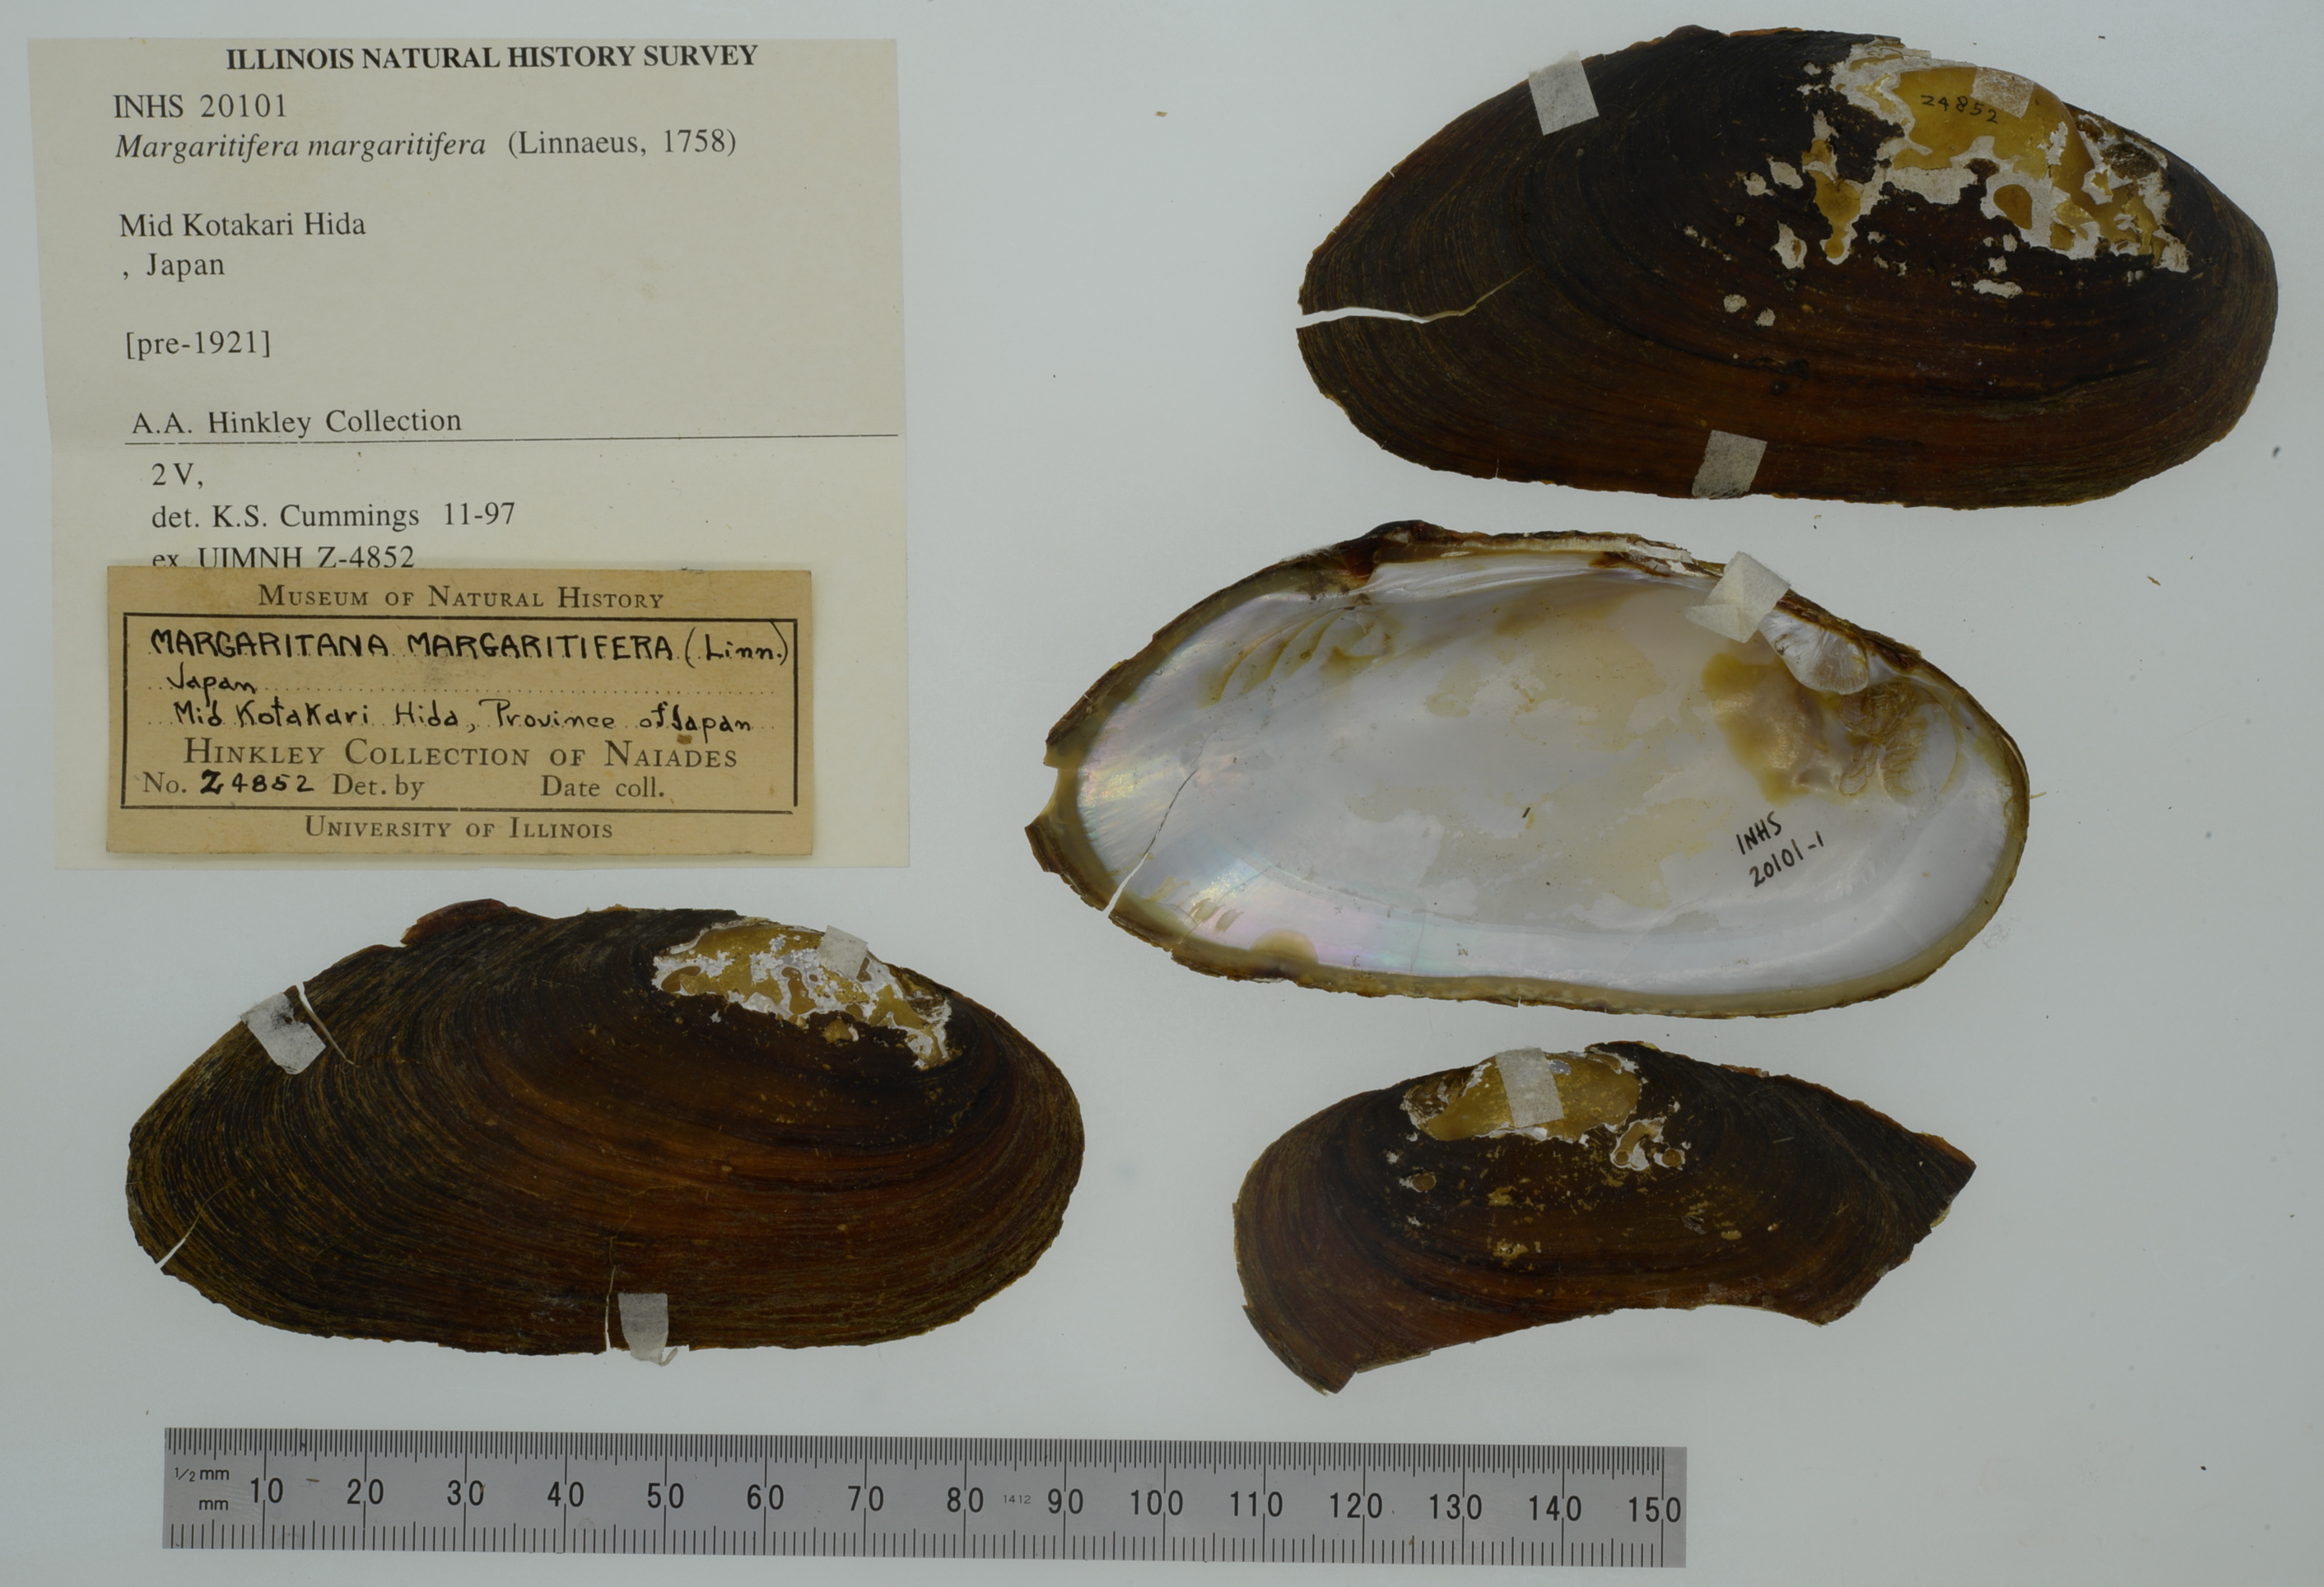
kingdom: Animalia
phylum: Mollusca
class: Bivalvia
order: Unionida
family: Margaritiferidae
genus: Margaritifera
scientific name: Margaritifera margaritifera
